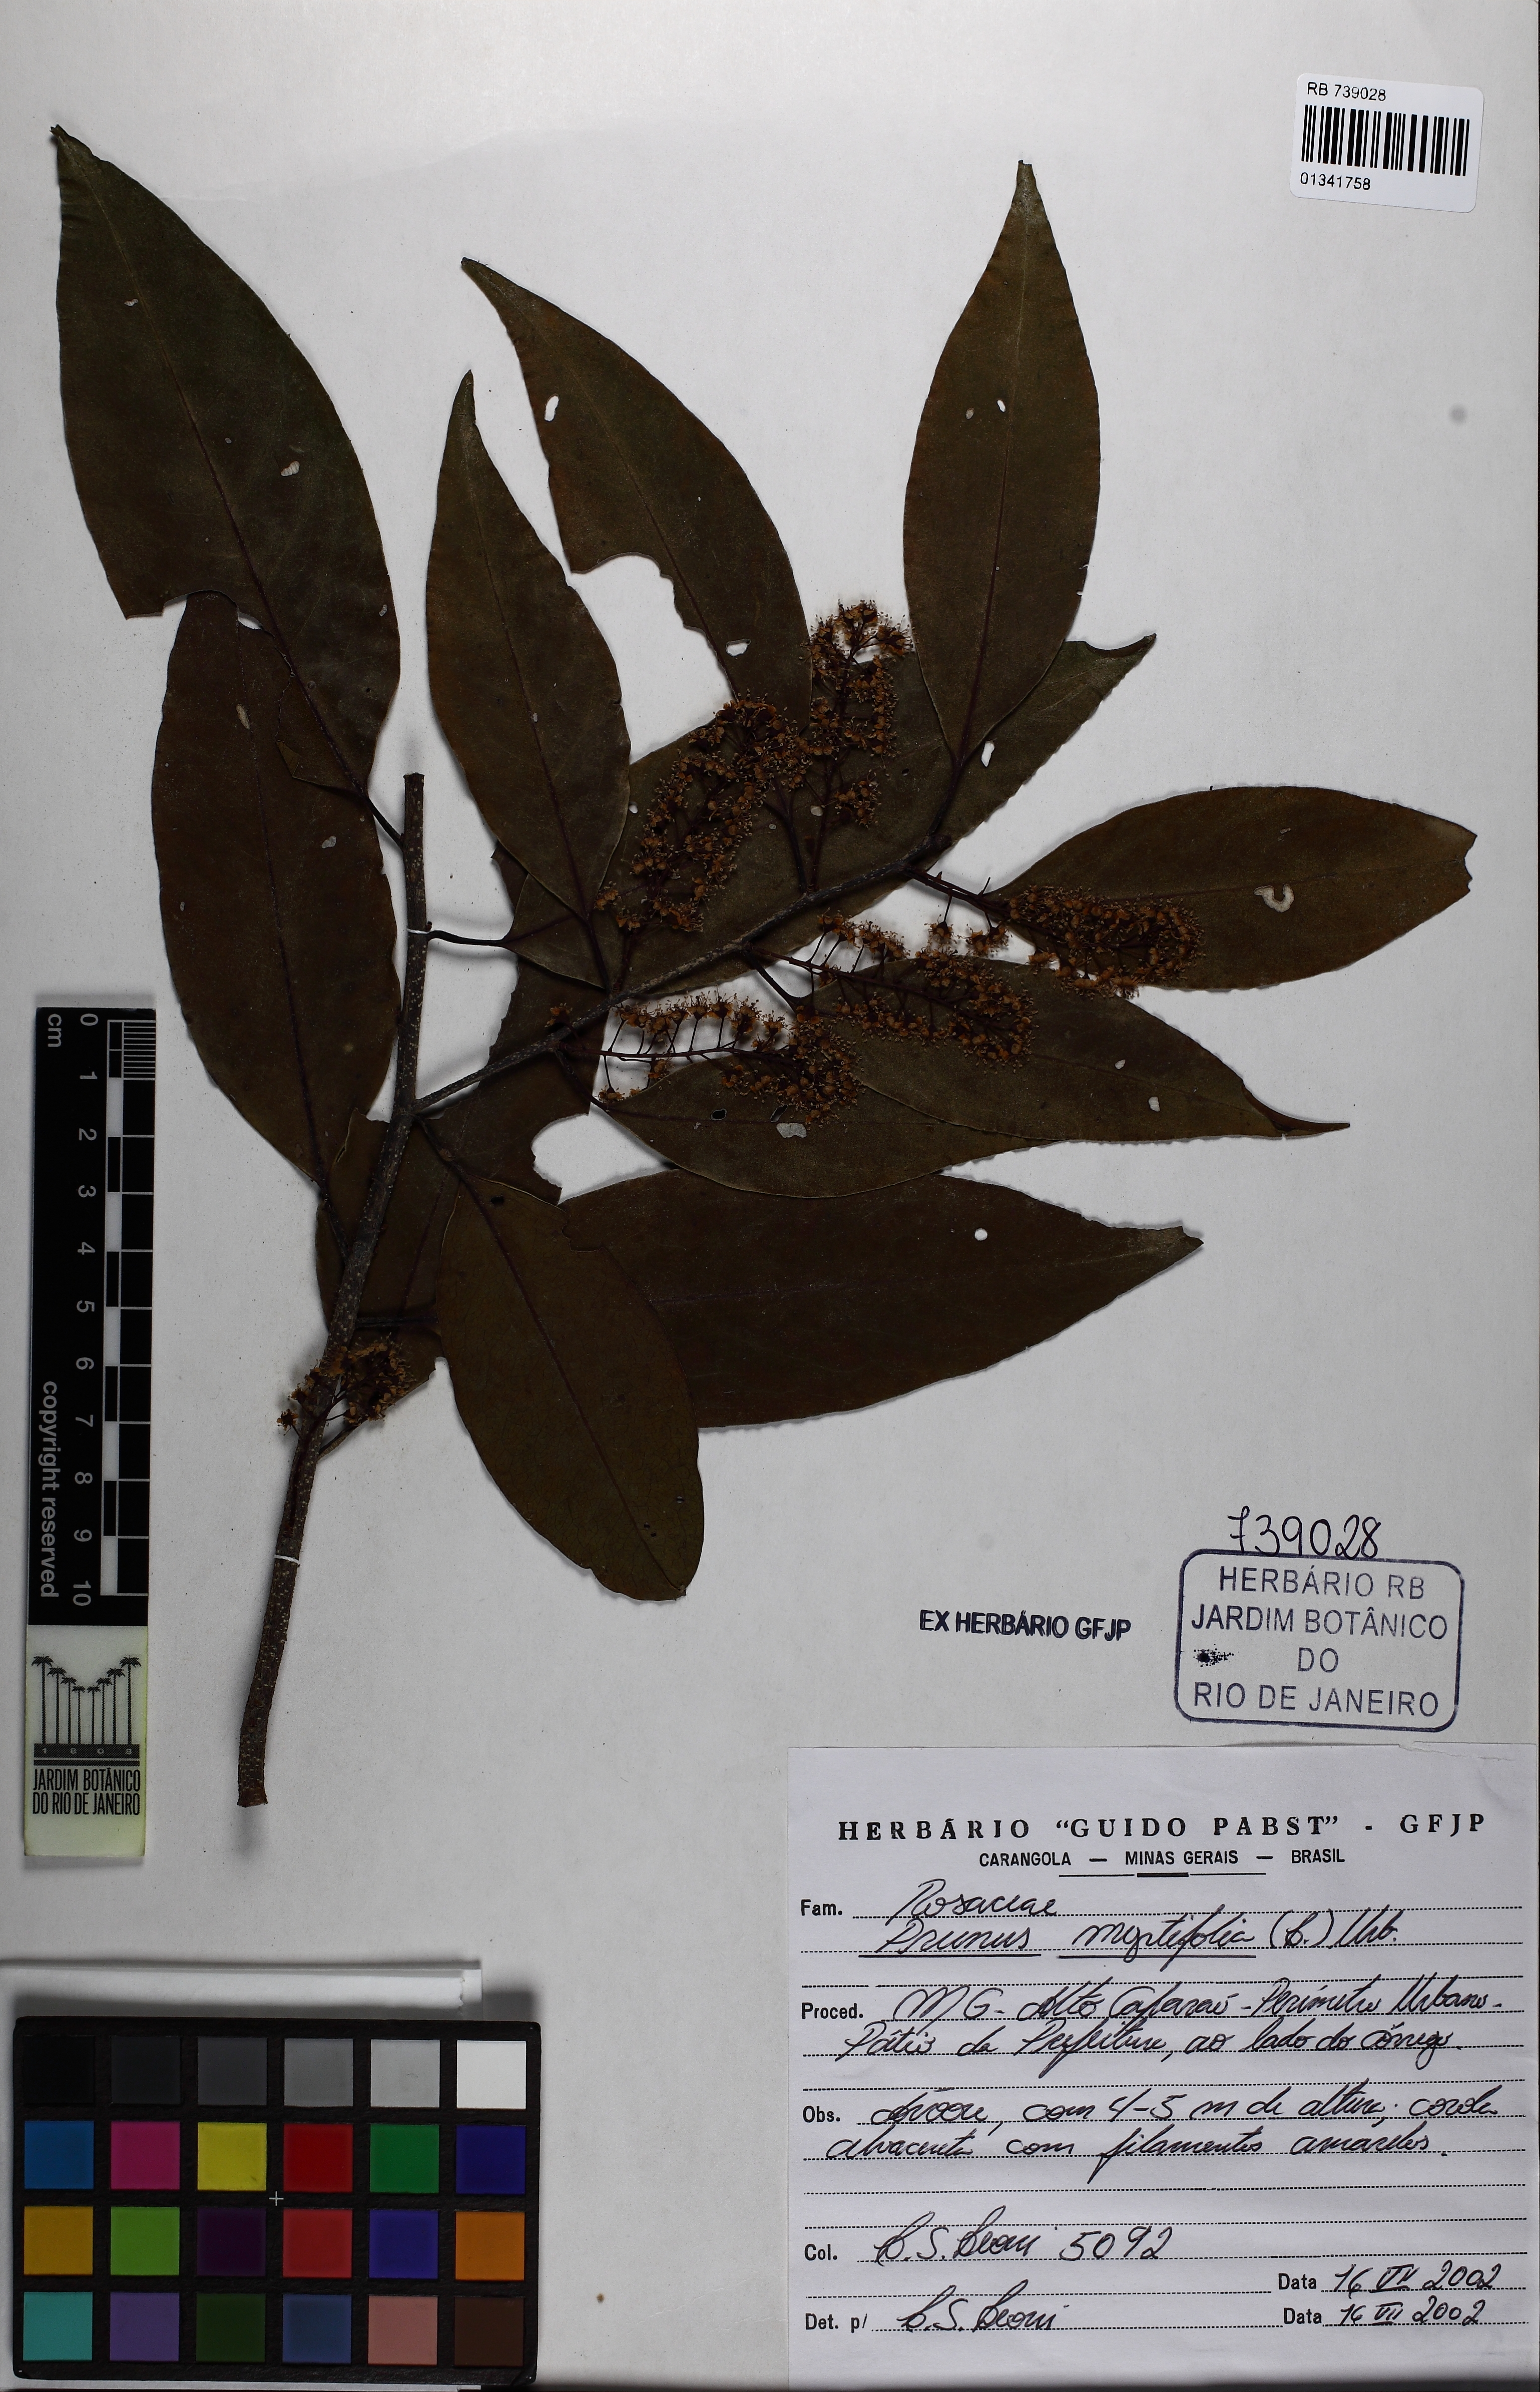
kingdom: Plantae
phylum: Tracheophyta
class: Magnoliopsida
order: Rosales
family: Rosaceae
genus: Prunus
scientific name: Prunus myrtifolia
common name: West indies cherry
